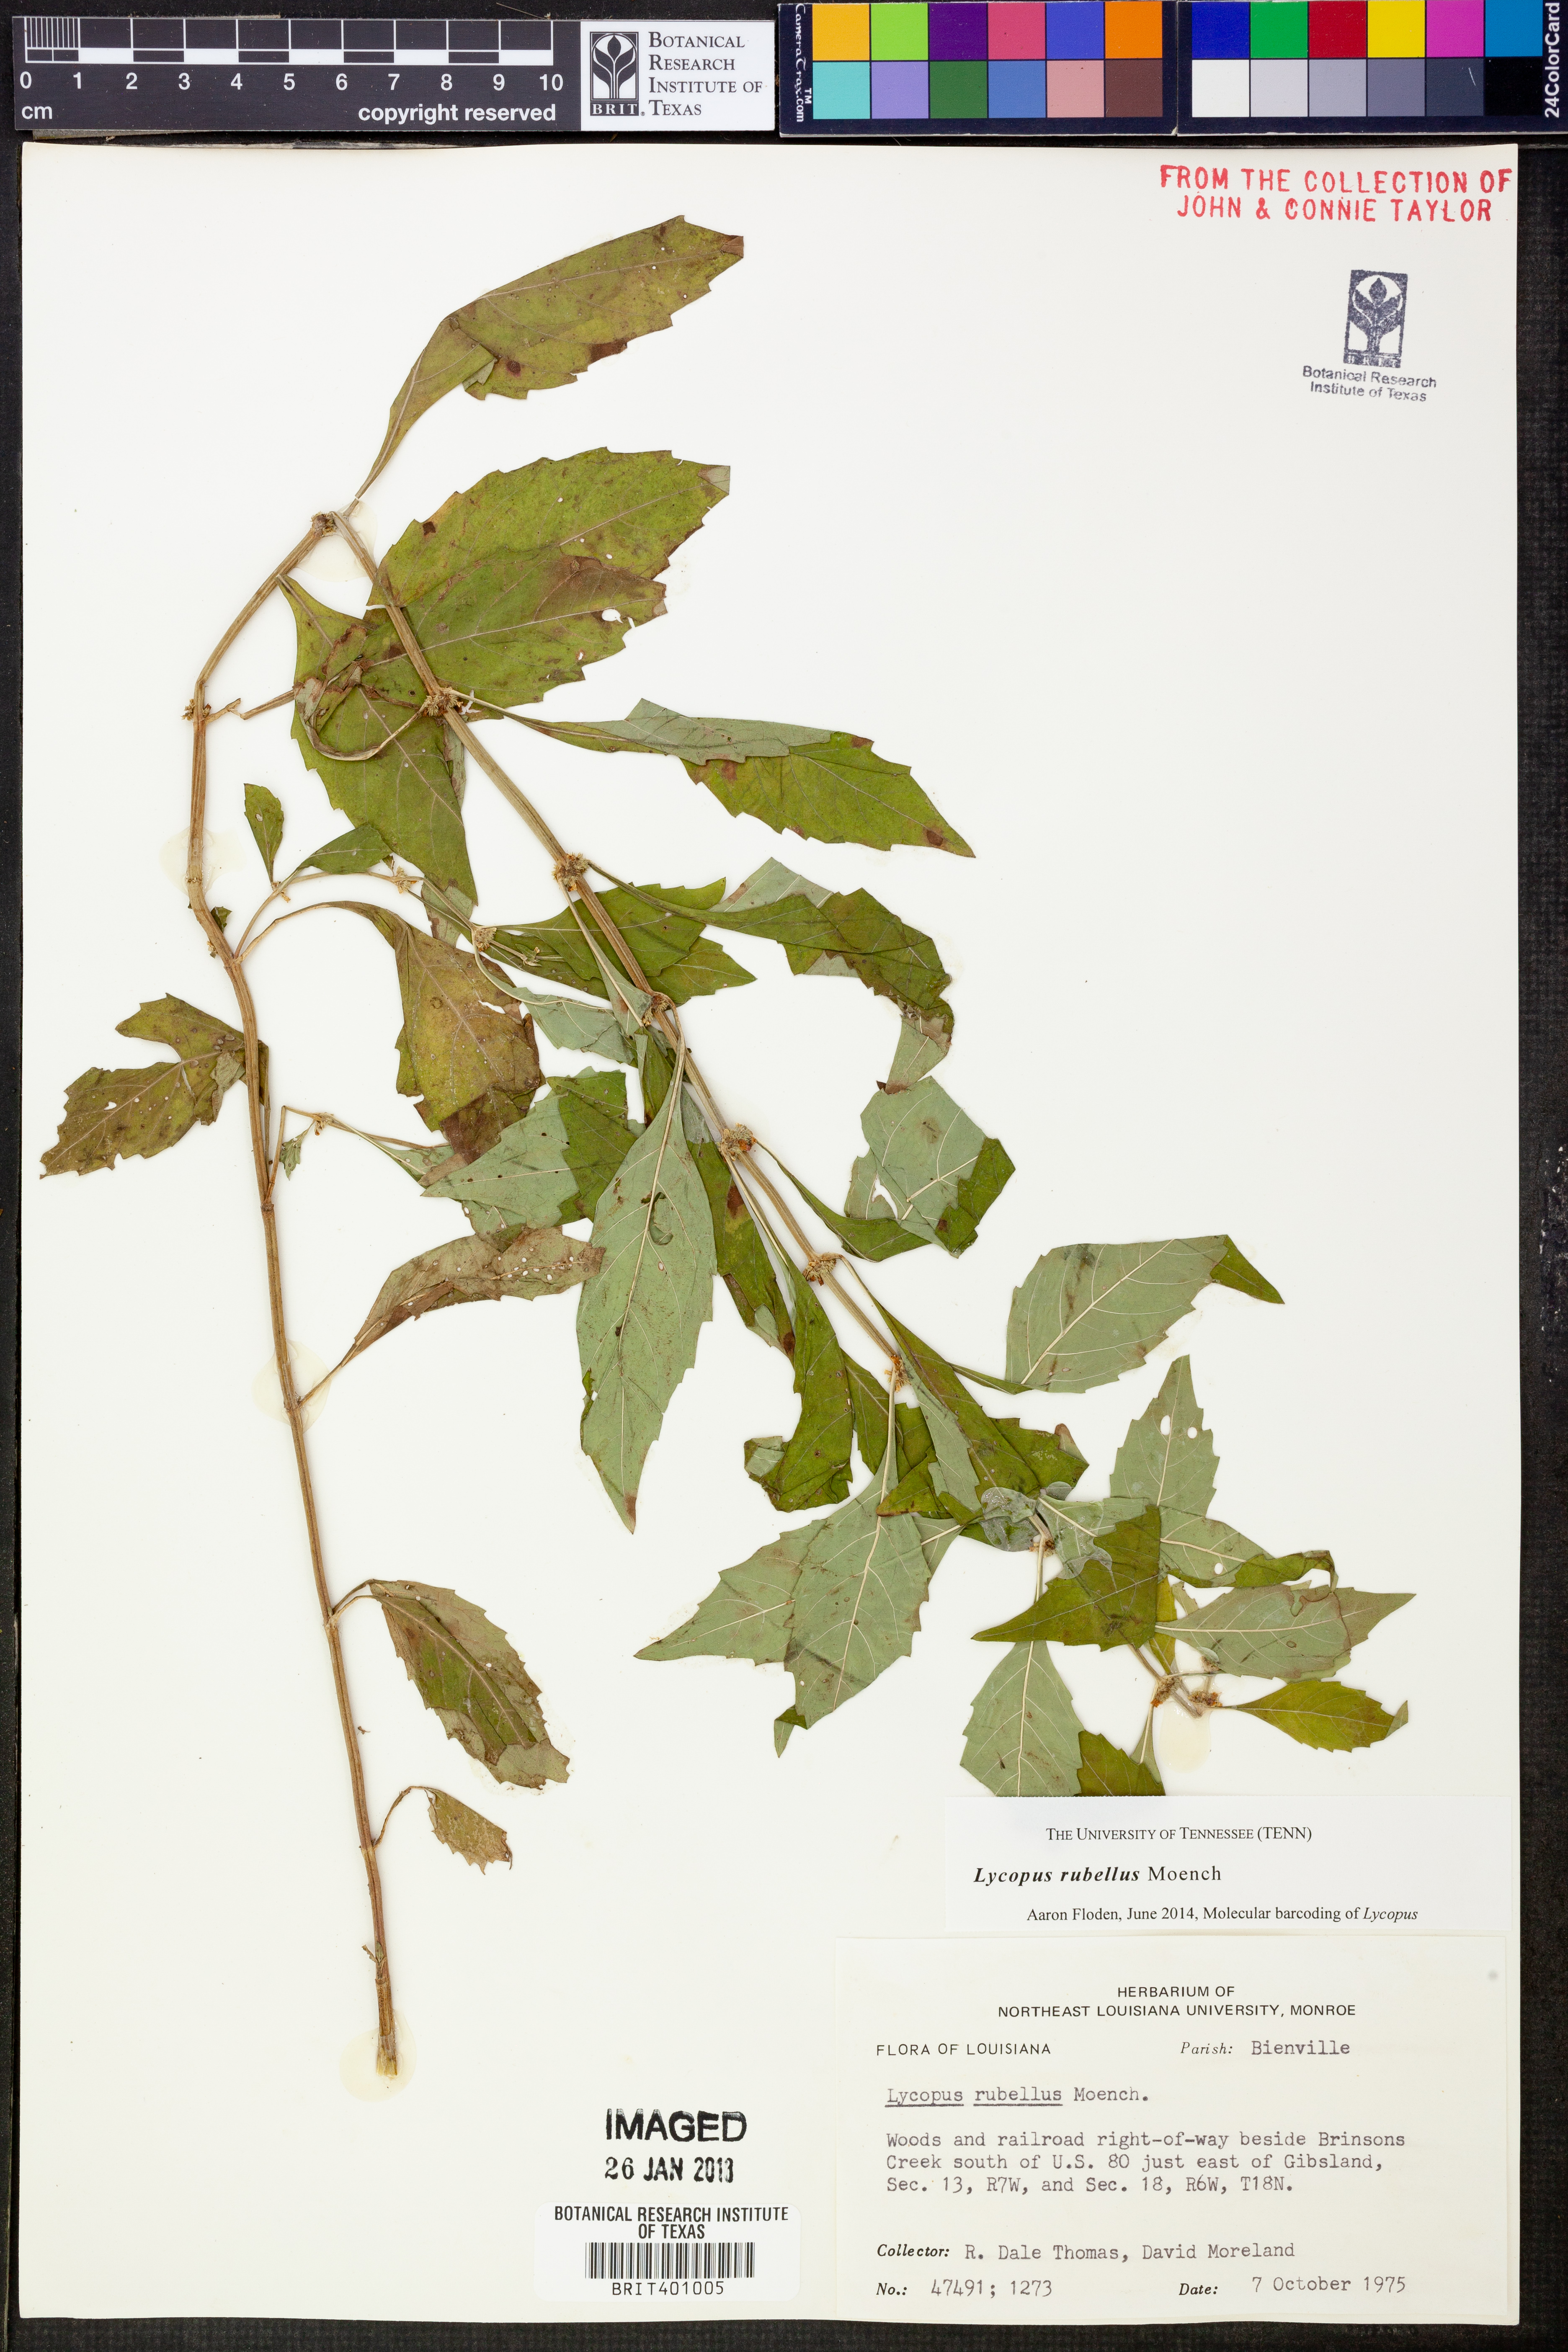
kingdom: Plantae
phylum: Tracheophyta
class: Magnoliopsida
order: Lamiales
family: Lamiaceae
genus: Lycopus
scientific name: Lycopus rubellus
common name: Stalked bugleweed
